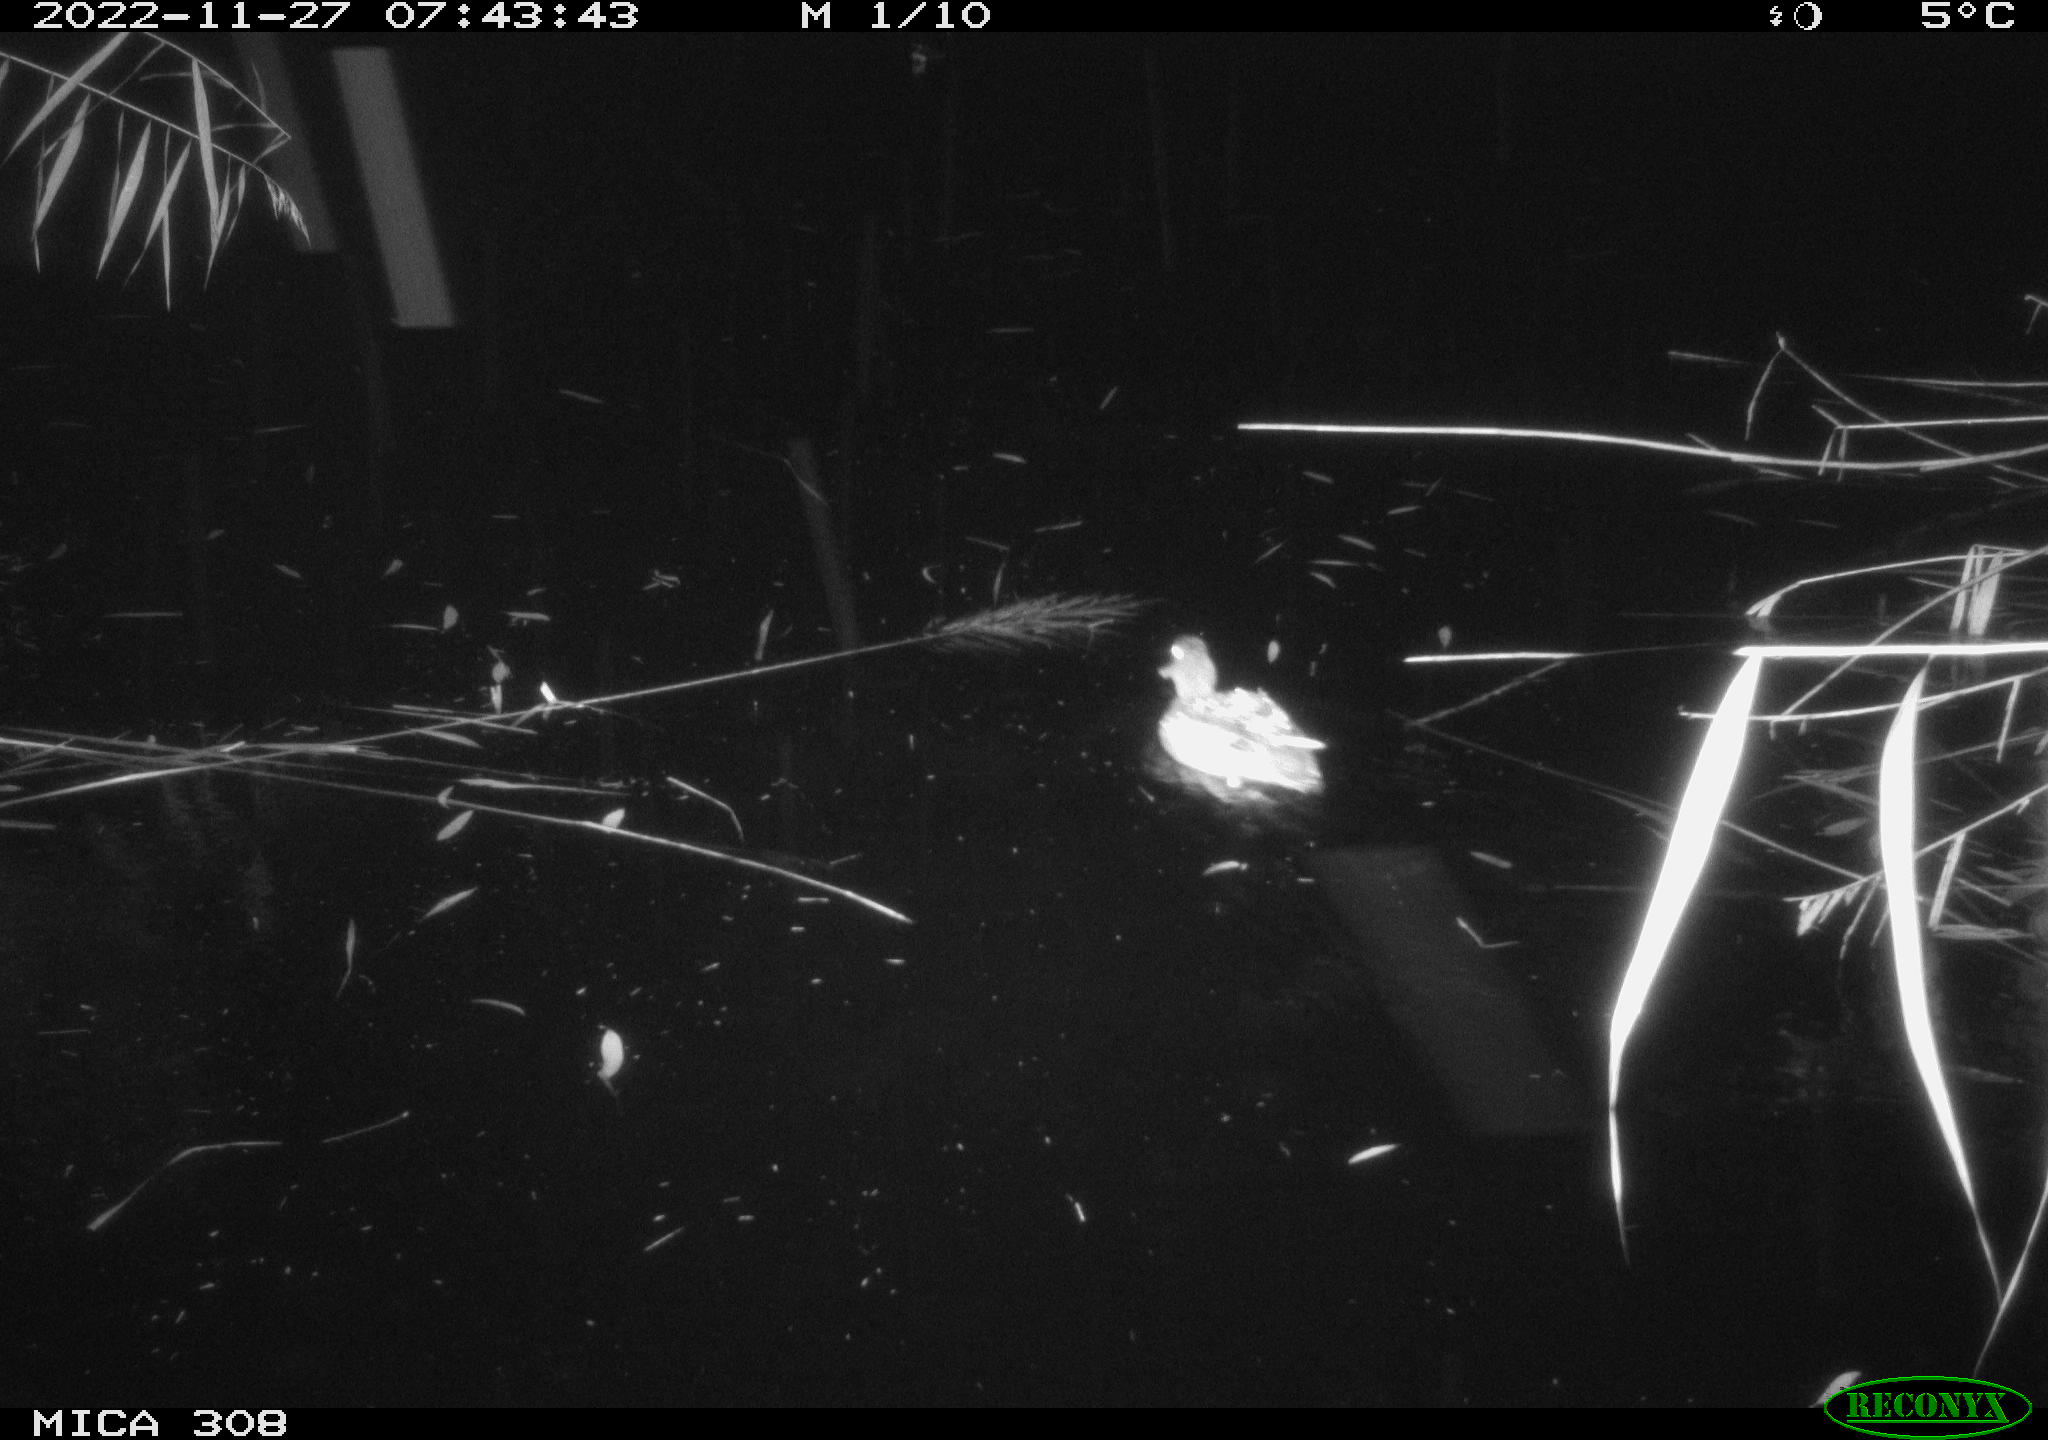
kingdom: Animalia
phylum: Chordata
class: Aves
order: Anseriformes
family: Anatidae
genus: Anas
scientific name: Anas
